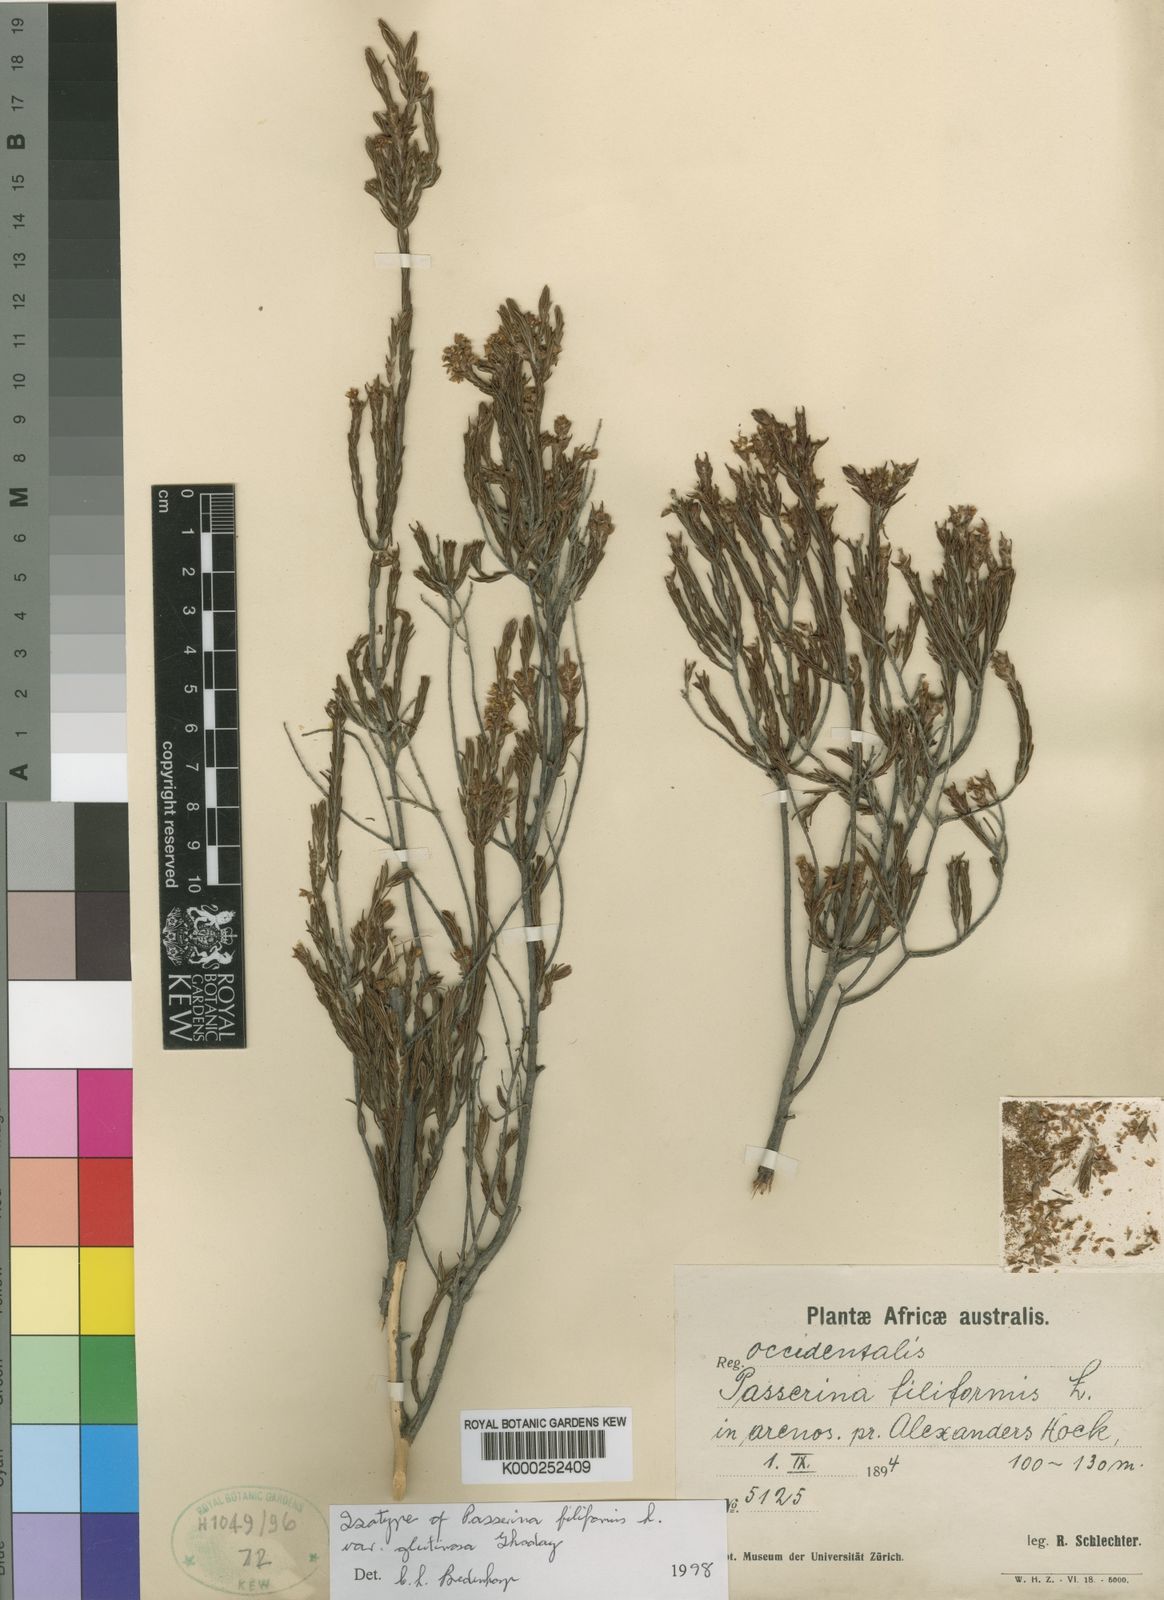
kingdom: Plantae
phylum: Tracheophyta
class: Magnoliopsida
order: Malvales
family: Thymelaeaceae
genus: Passerina
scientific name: Passerina filiformis
